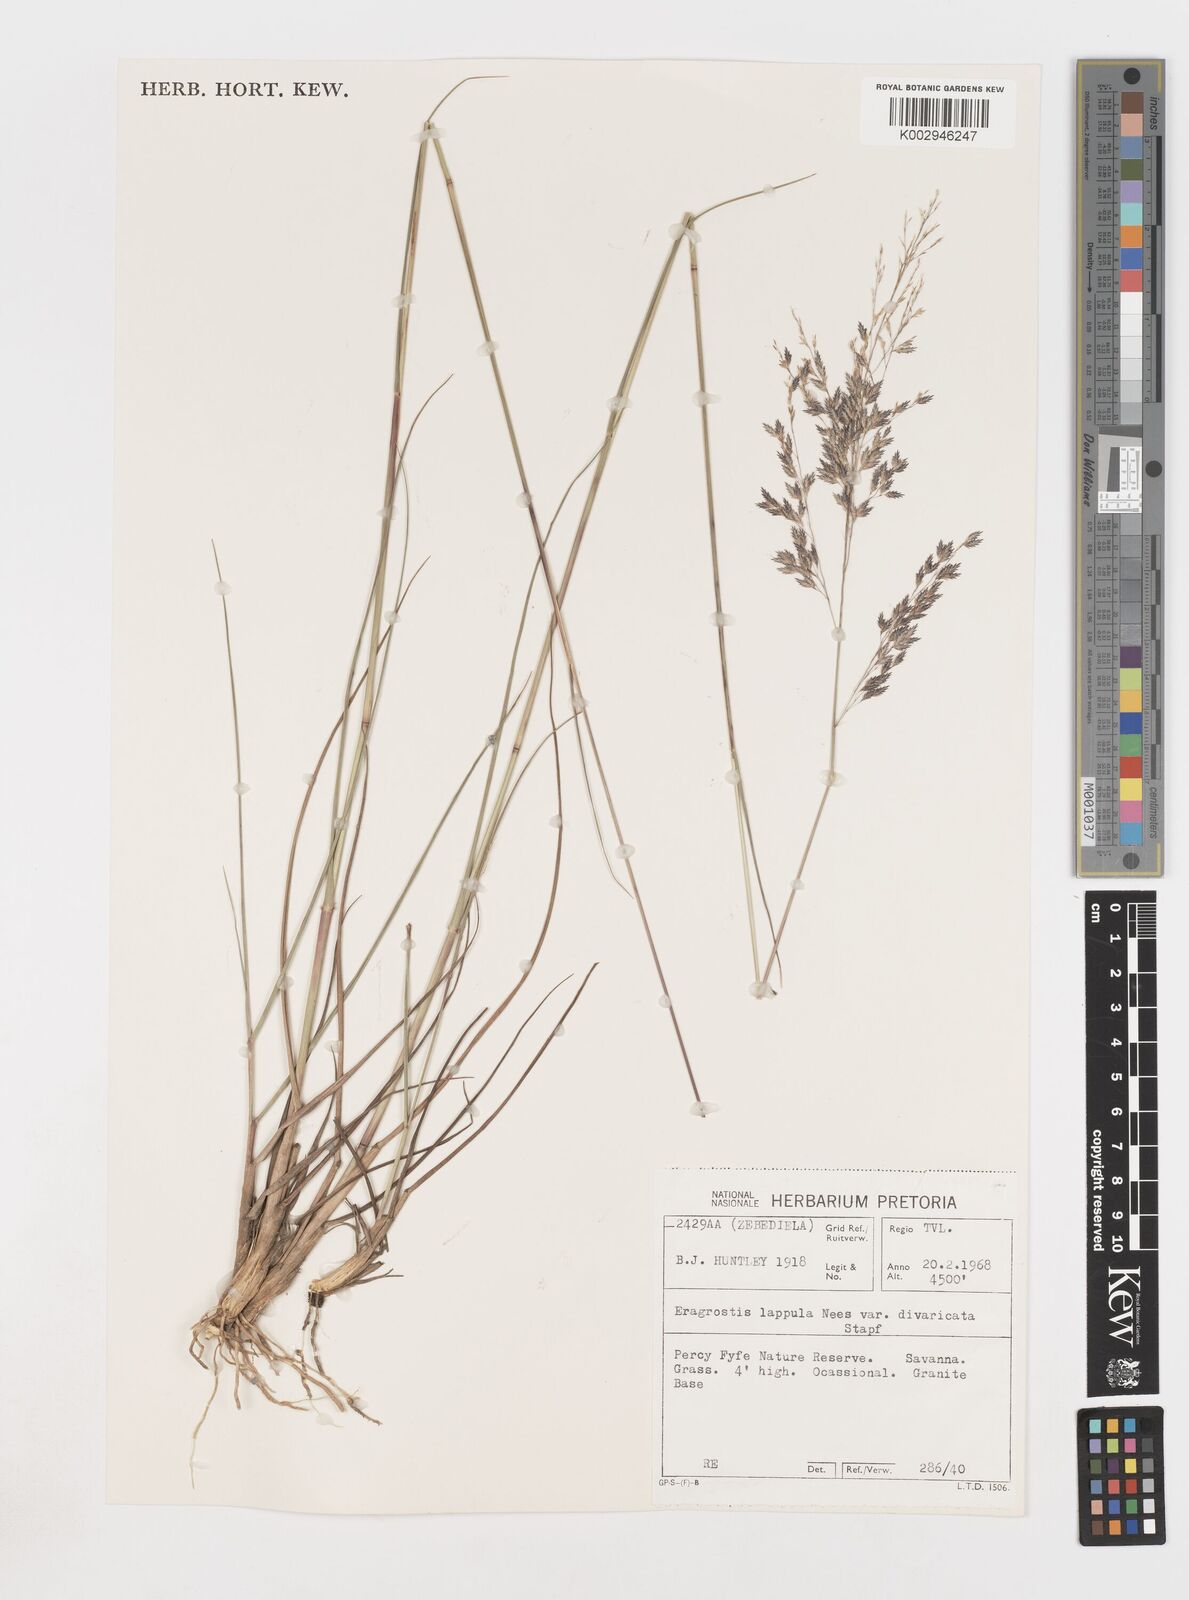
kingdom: Plantae
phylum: Tracheophyta
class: Liliopsida
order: Poales
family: Poaceae
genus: Eragrostis
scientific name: Eragrostis lappula
